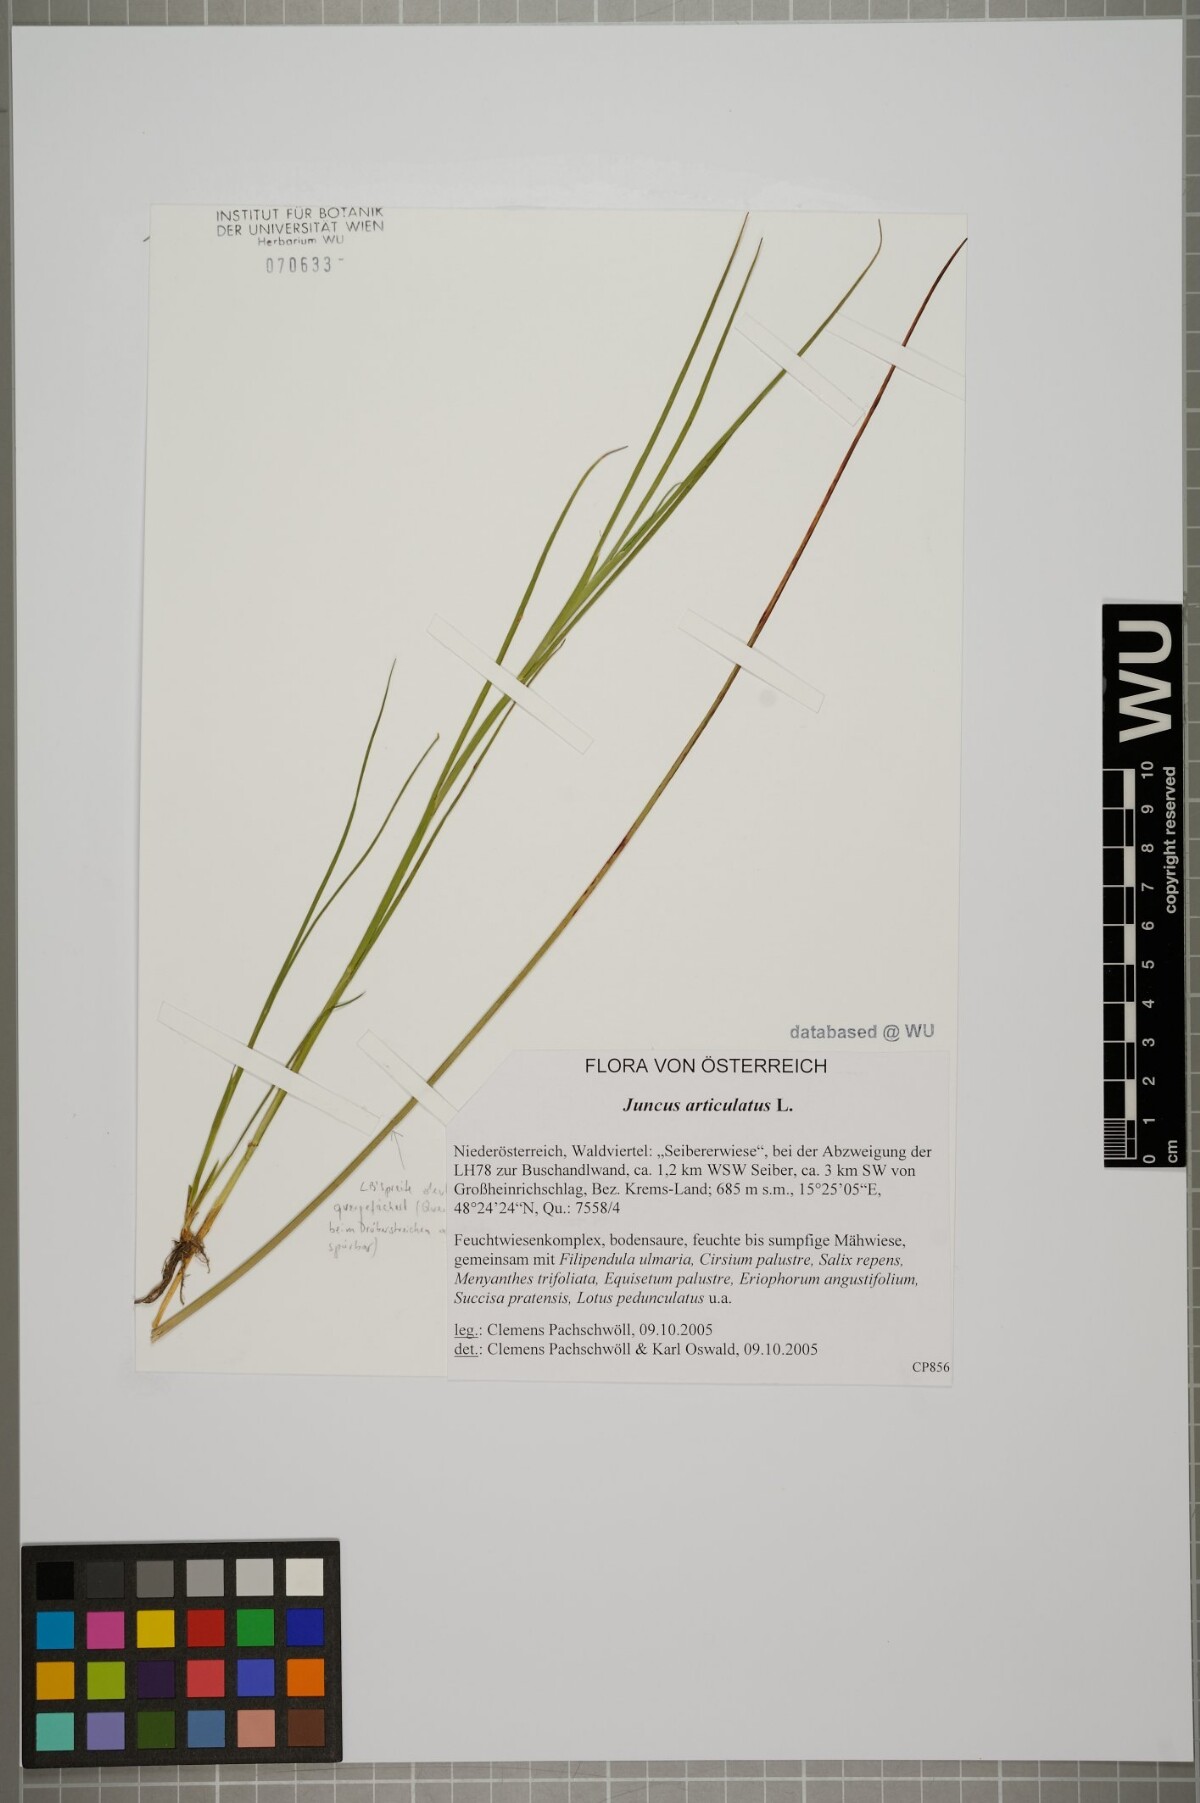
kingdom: Plantae
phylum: Tracheophyta
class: Liliopsida
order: Poales
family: Juncaceae
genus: Juncus
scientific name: Juncus articulatus
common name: Jointed rush
